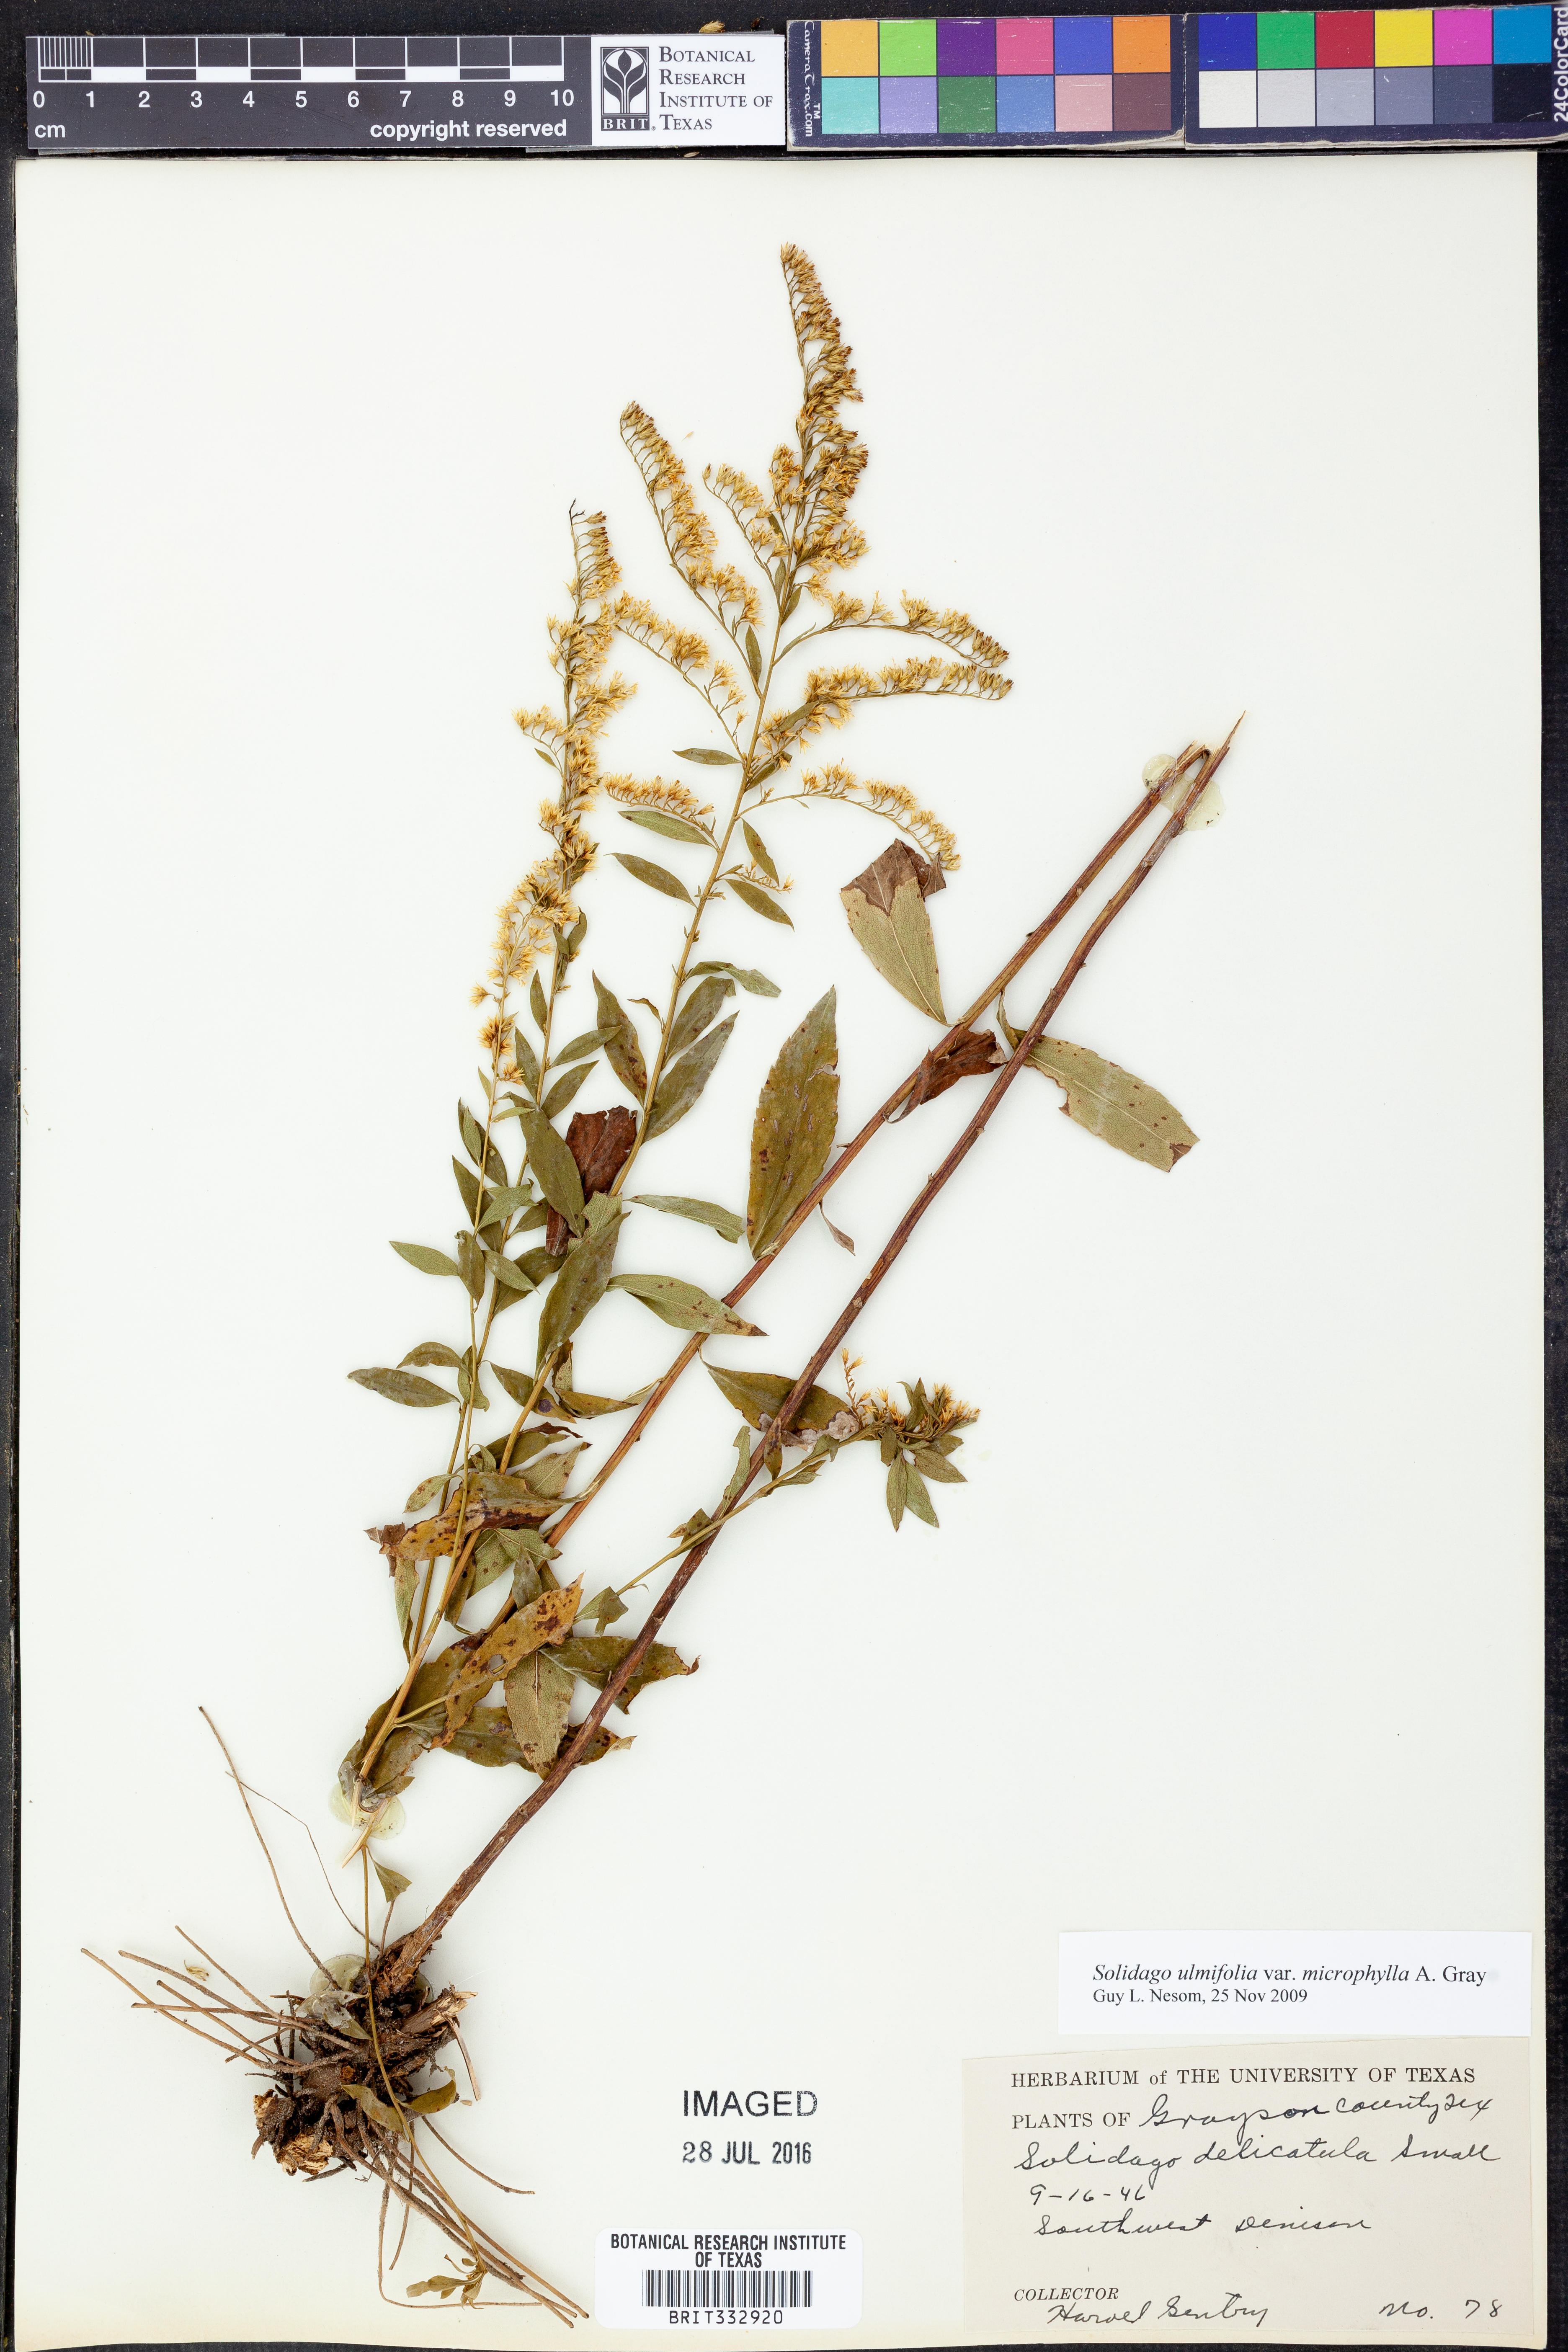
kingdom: Plantae
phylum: Tracheophyta
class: Magnoliopsida
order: Asterales
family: Asteraceae
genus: Solidago
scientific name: Solidago delicatula
